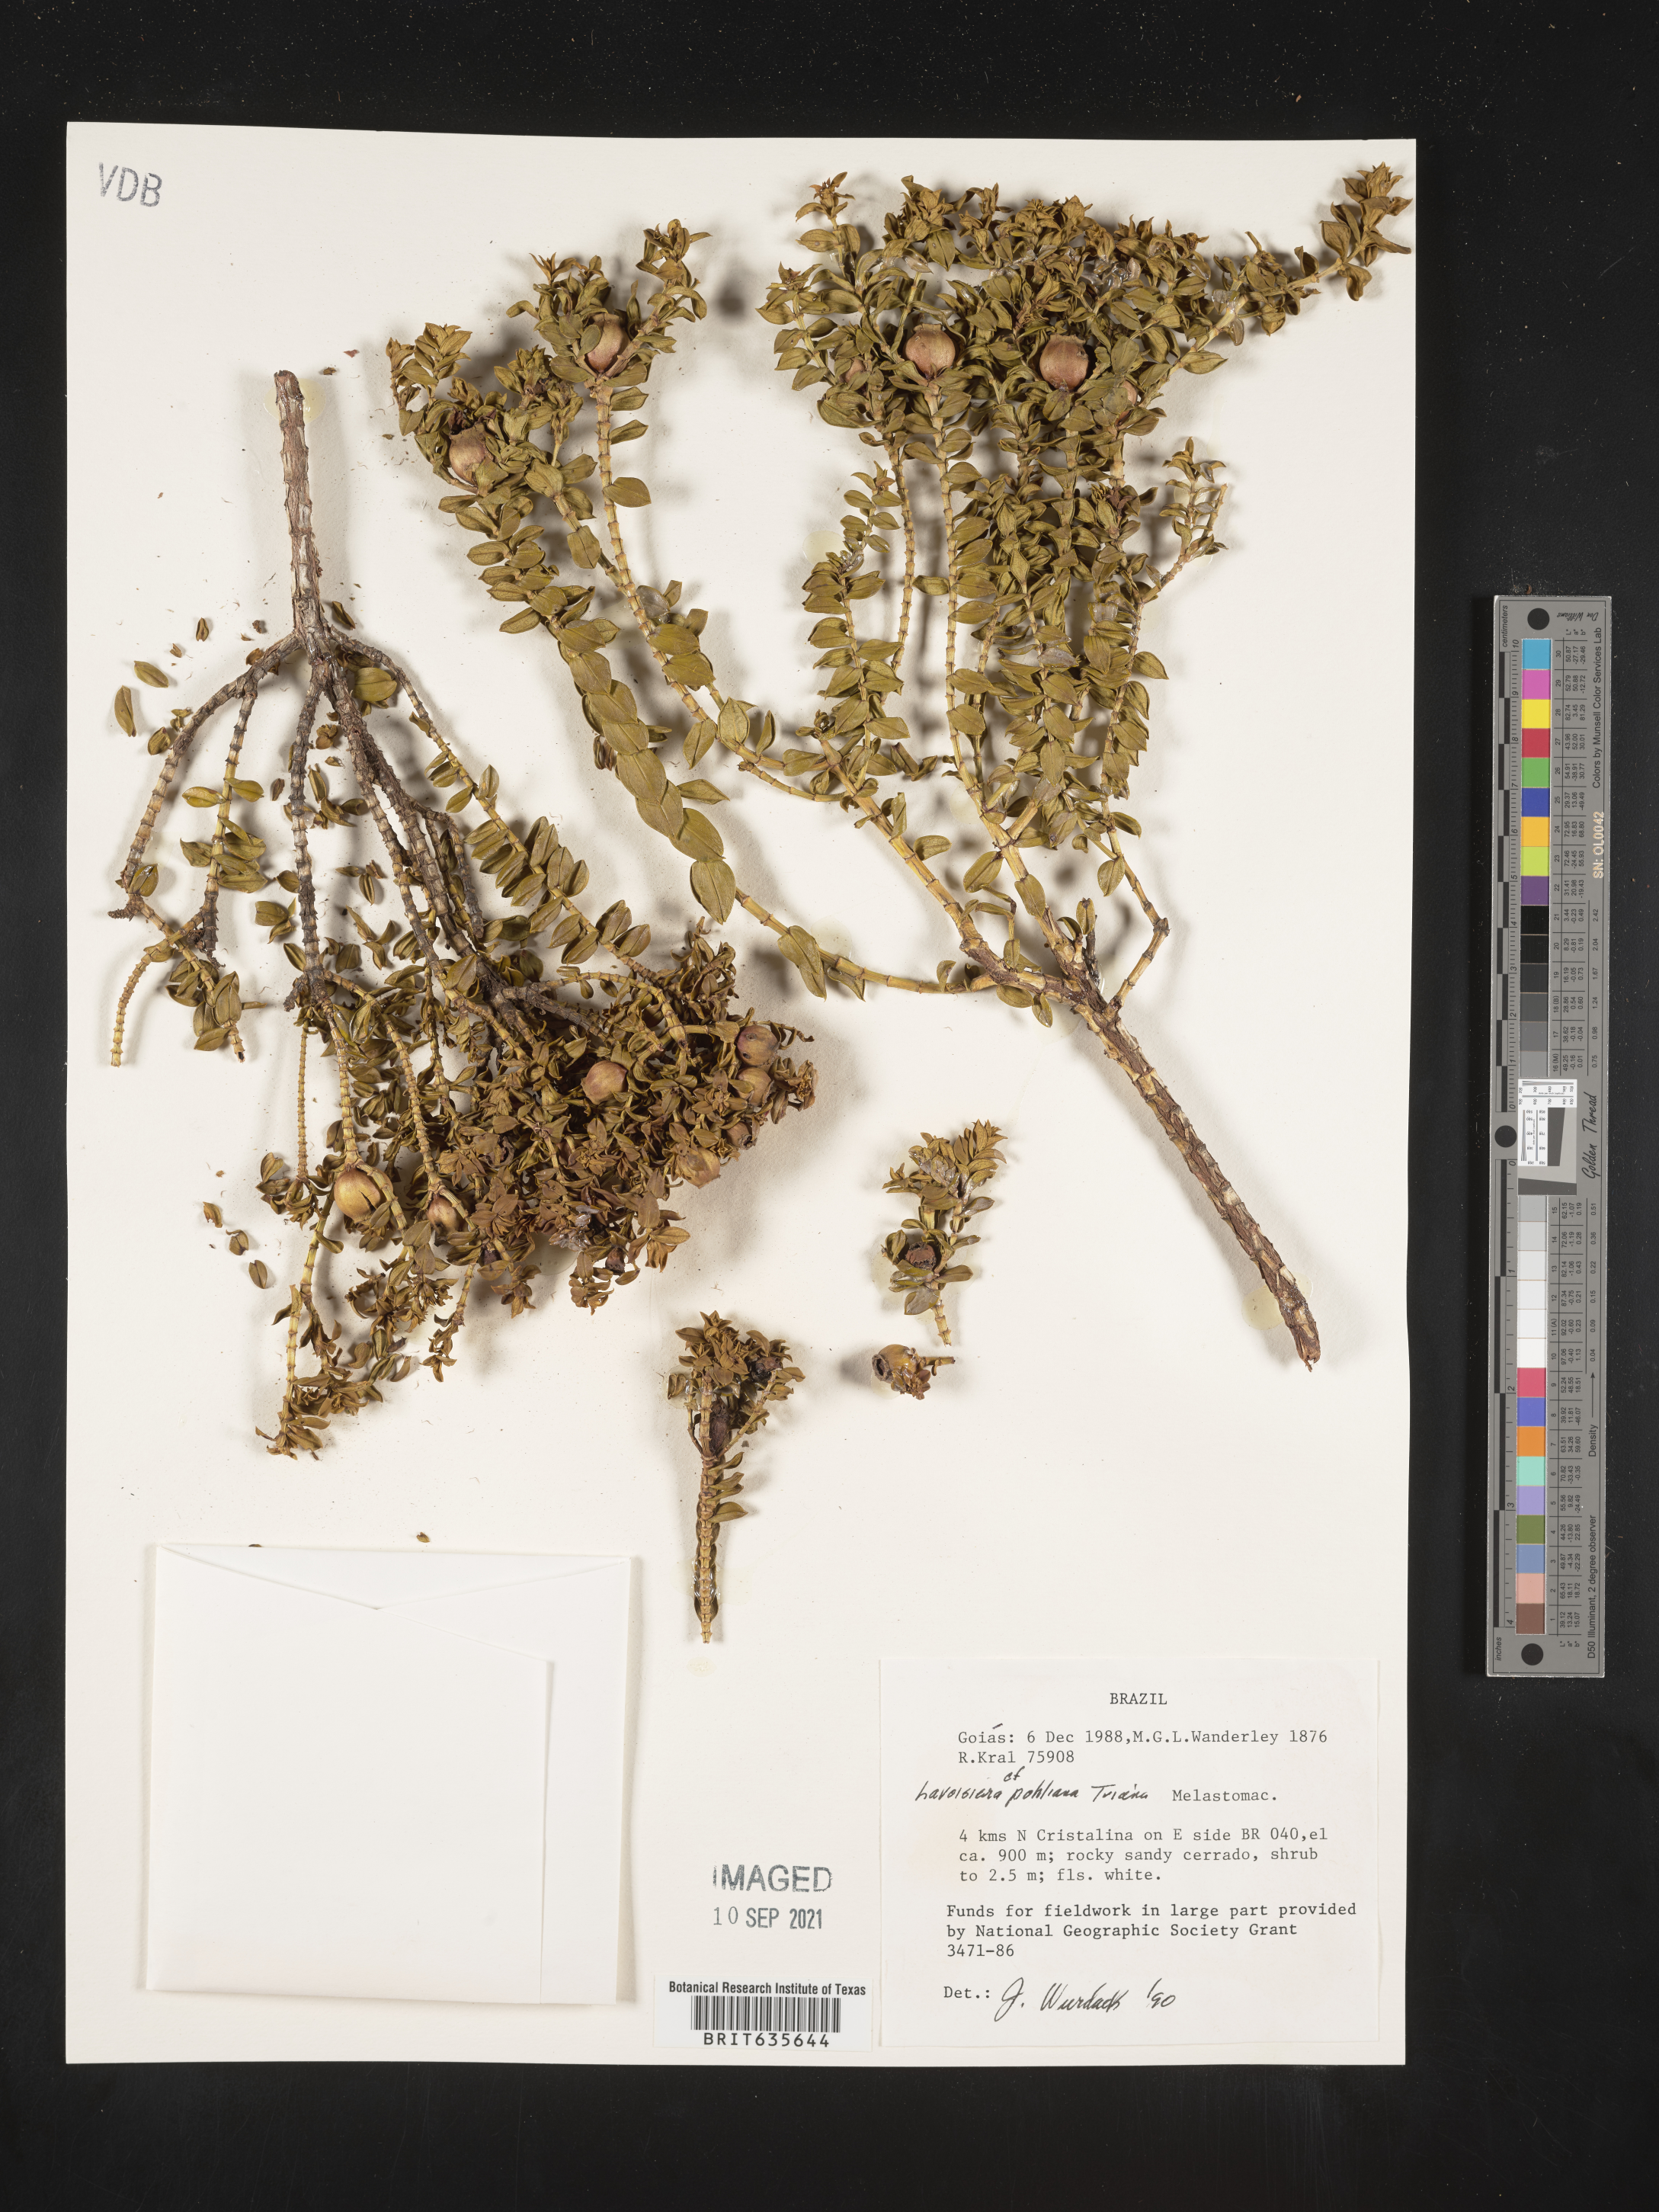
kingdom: Plantae
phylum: Tracheophyta
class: Magnoliopsida
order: Myrtales
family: Melastomataceae
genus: Microlicia
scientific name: Microlicia
